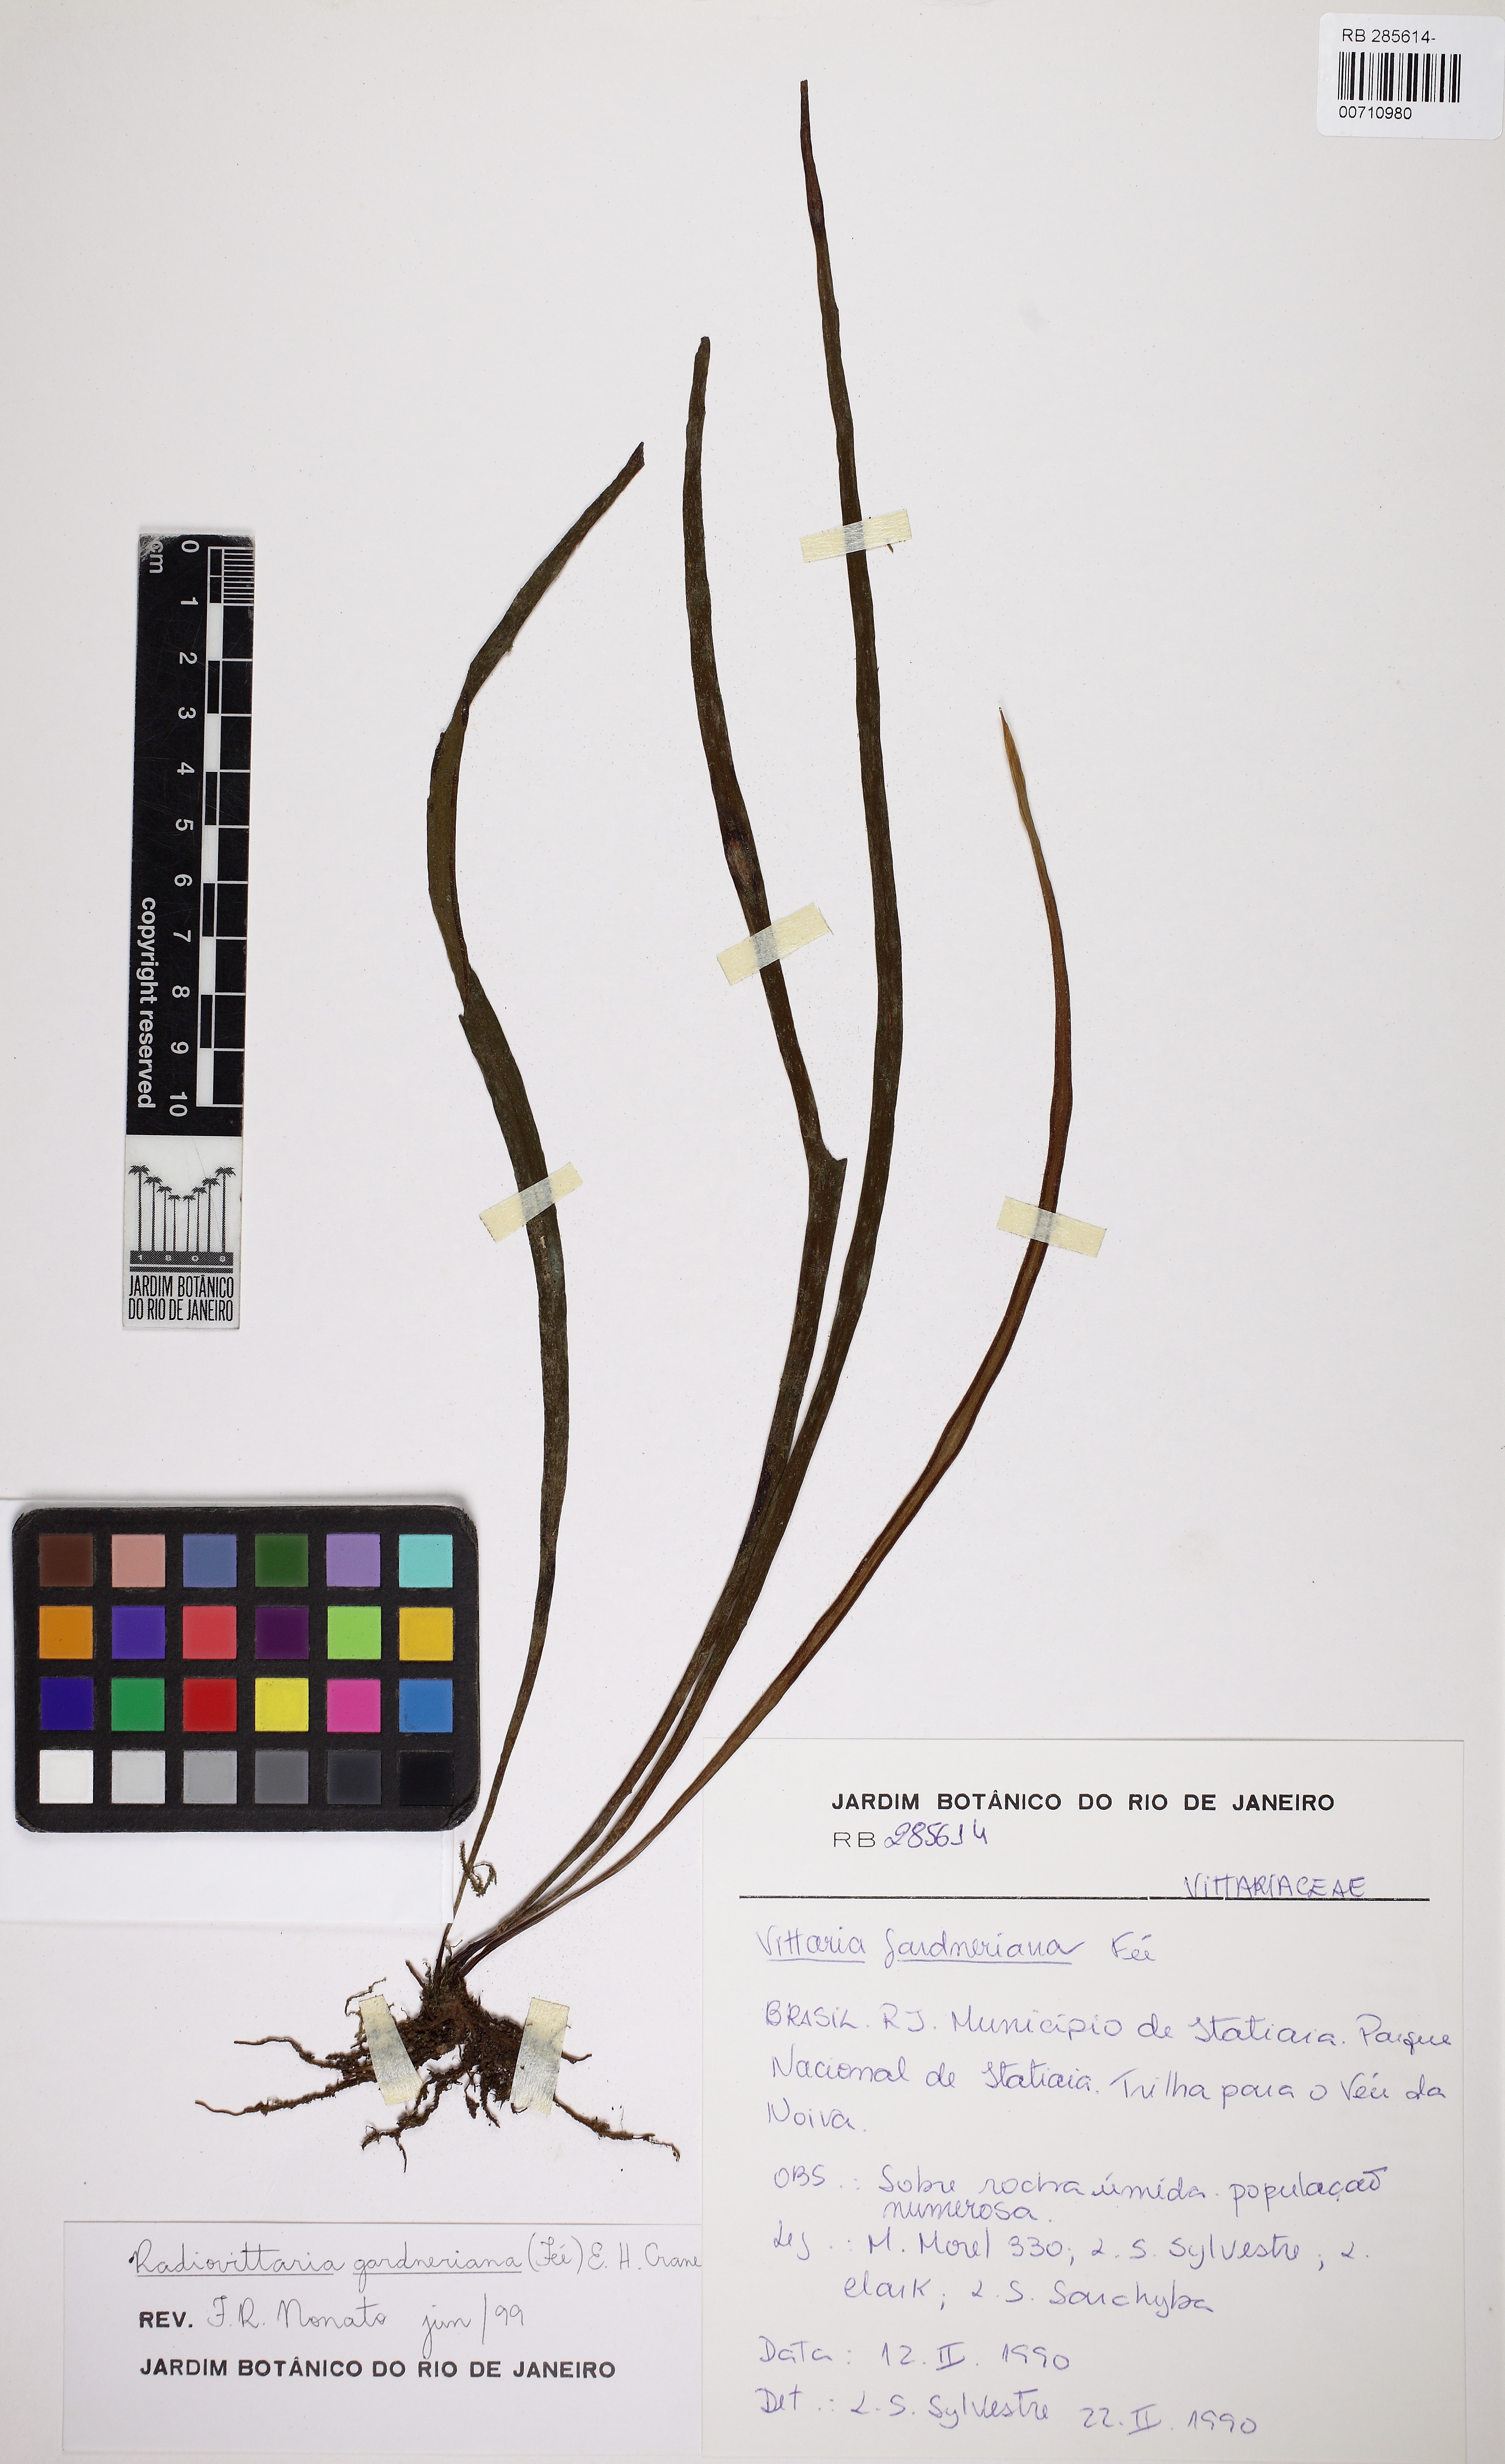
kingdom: Plantae
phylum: Tracheophyta
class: Polypodiopsida
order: Polypodiales
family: Pteridaceae
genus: Radiovittaria
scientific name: Radiovittaria gardneriana
